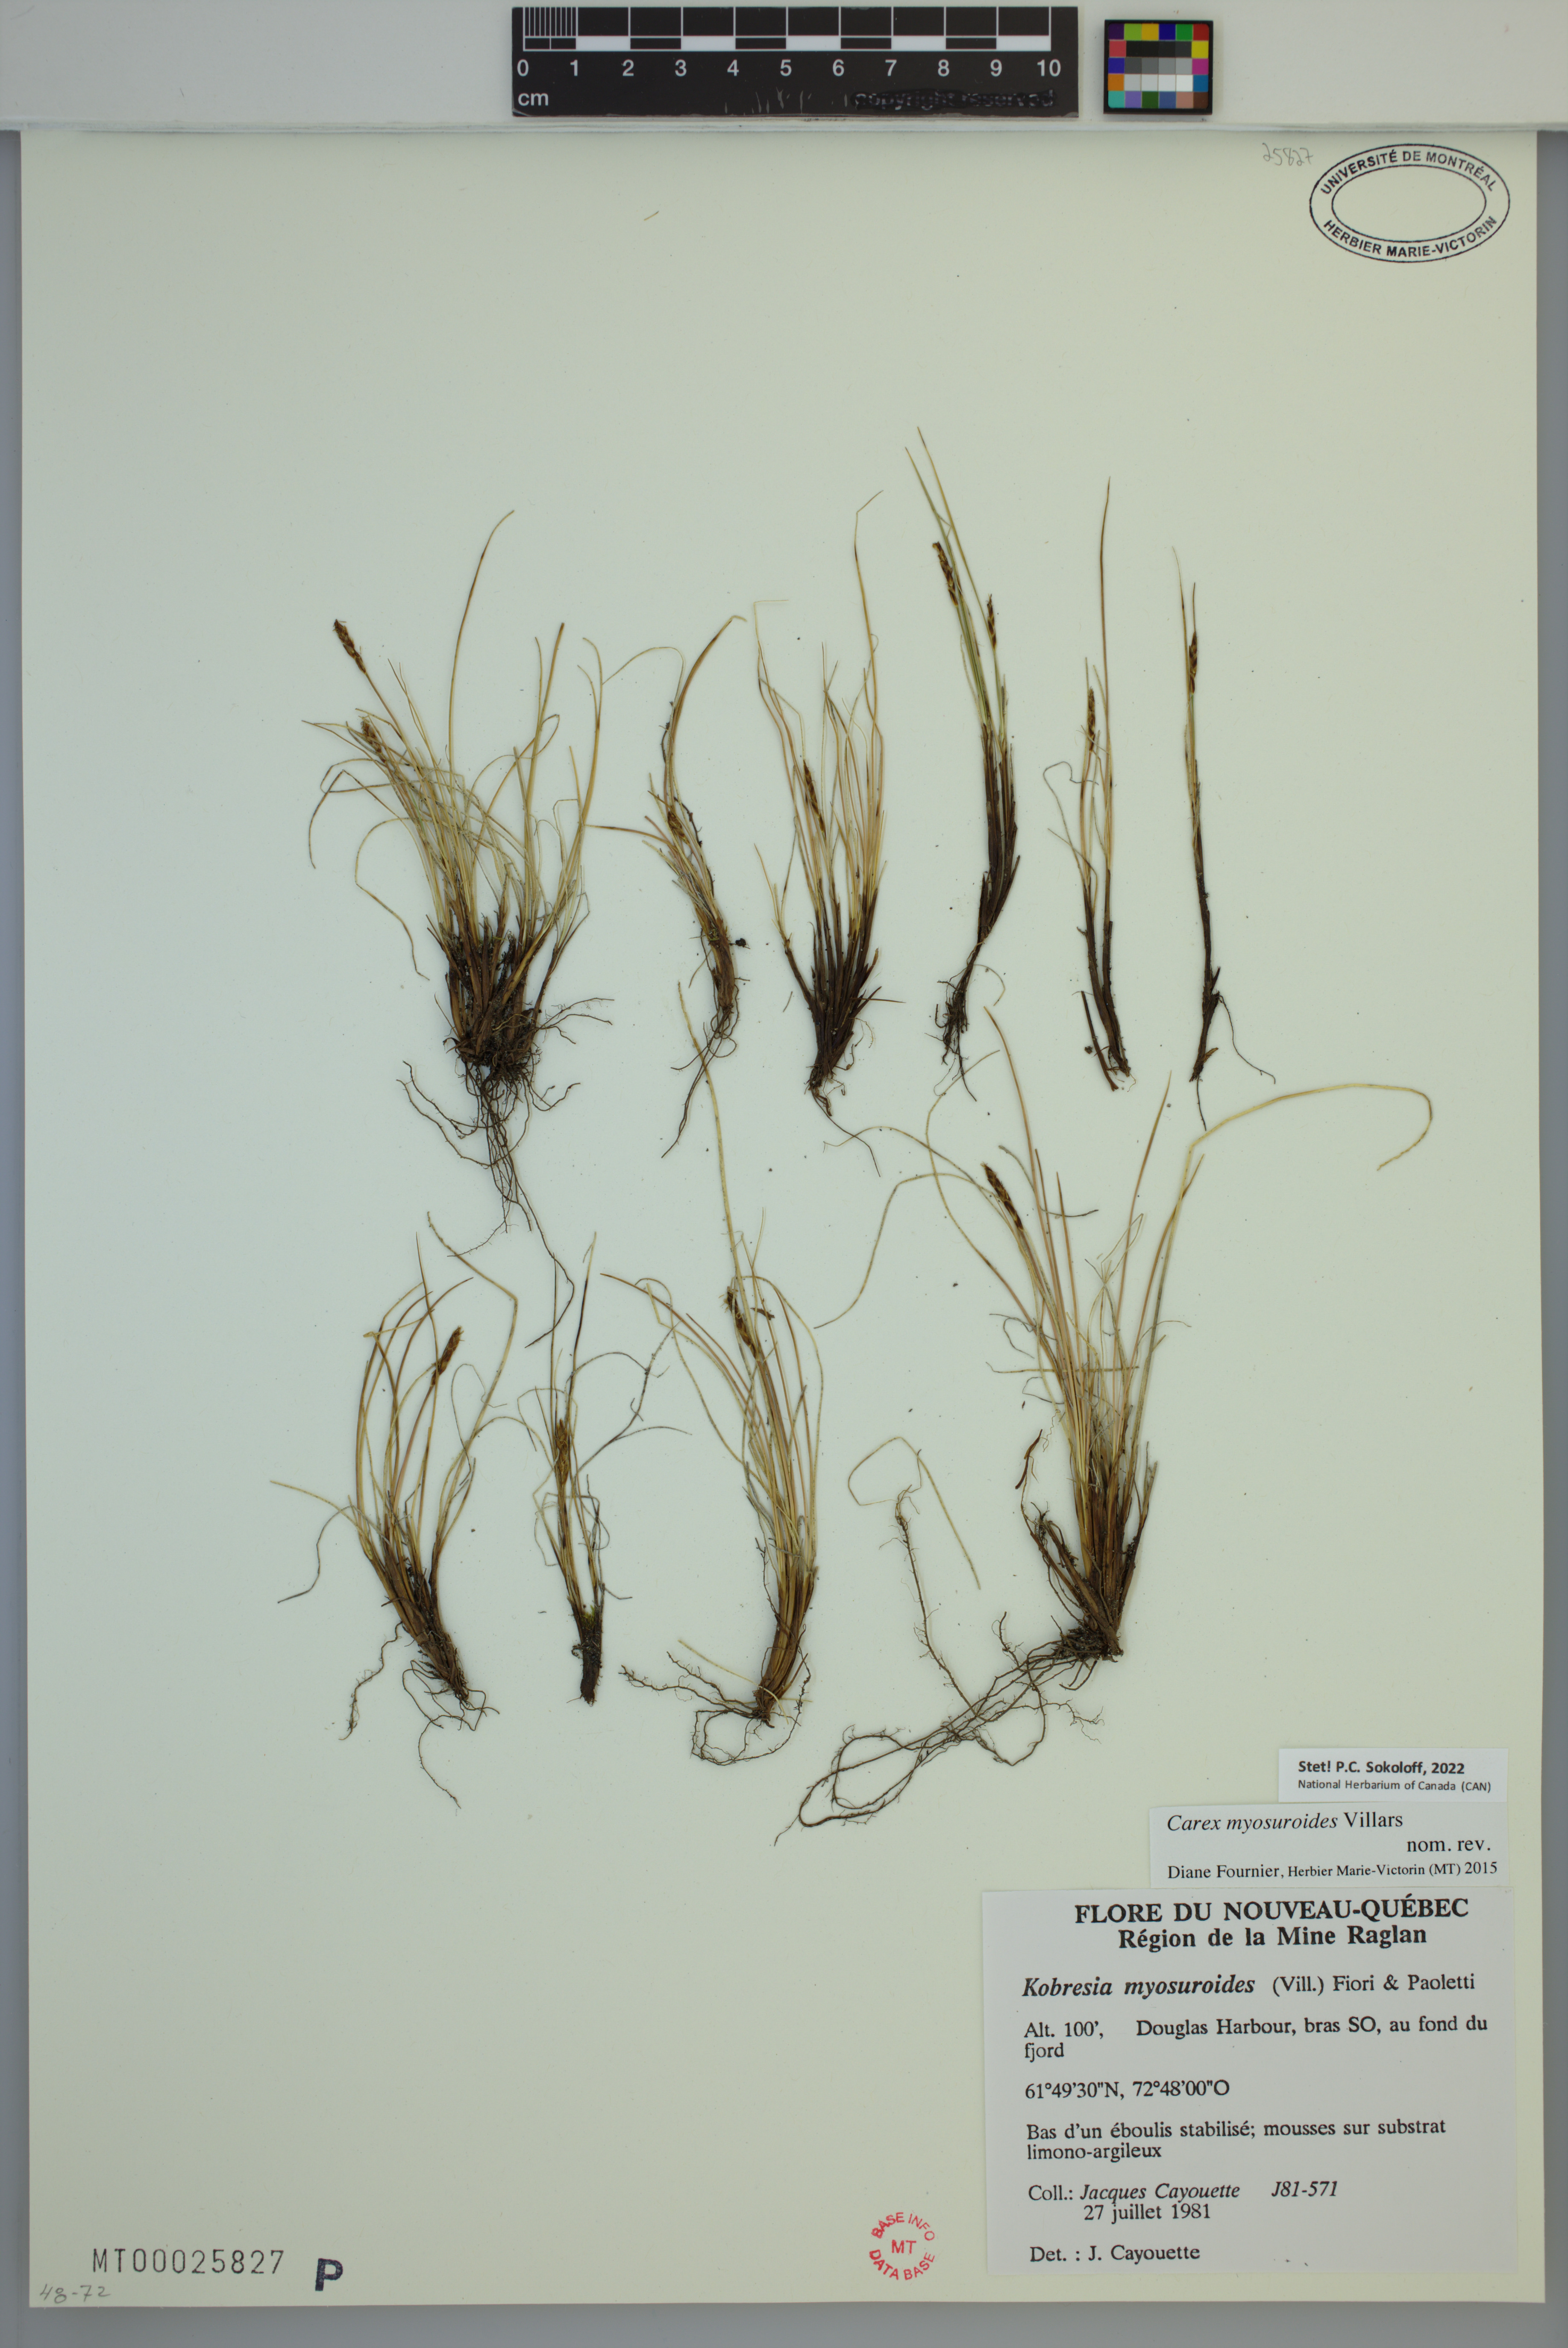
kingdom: Plantae
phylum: Tracheophyta
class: Liliopsida
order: Poales
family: Cyperaceae
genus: Carex
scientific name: Carex myosuroides
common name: Bellard's bog sedge
